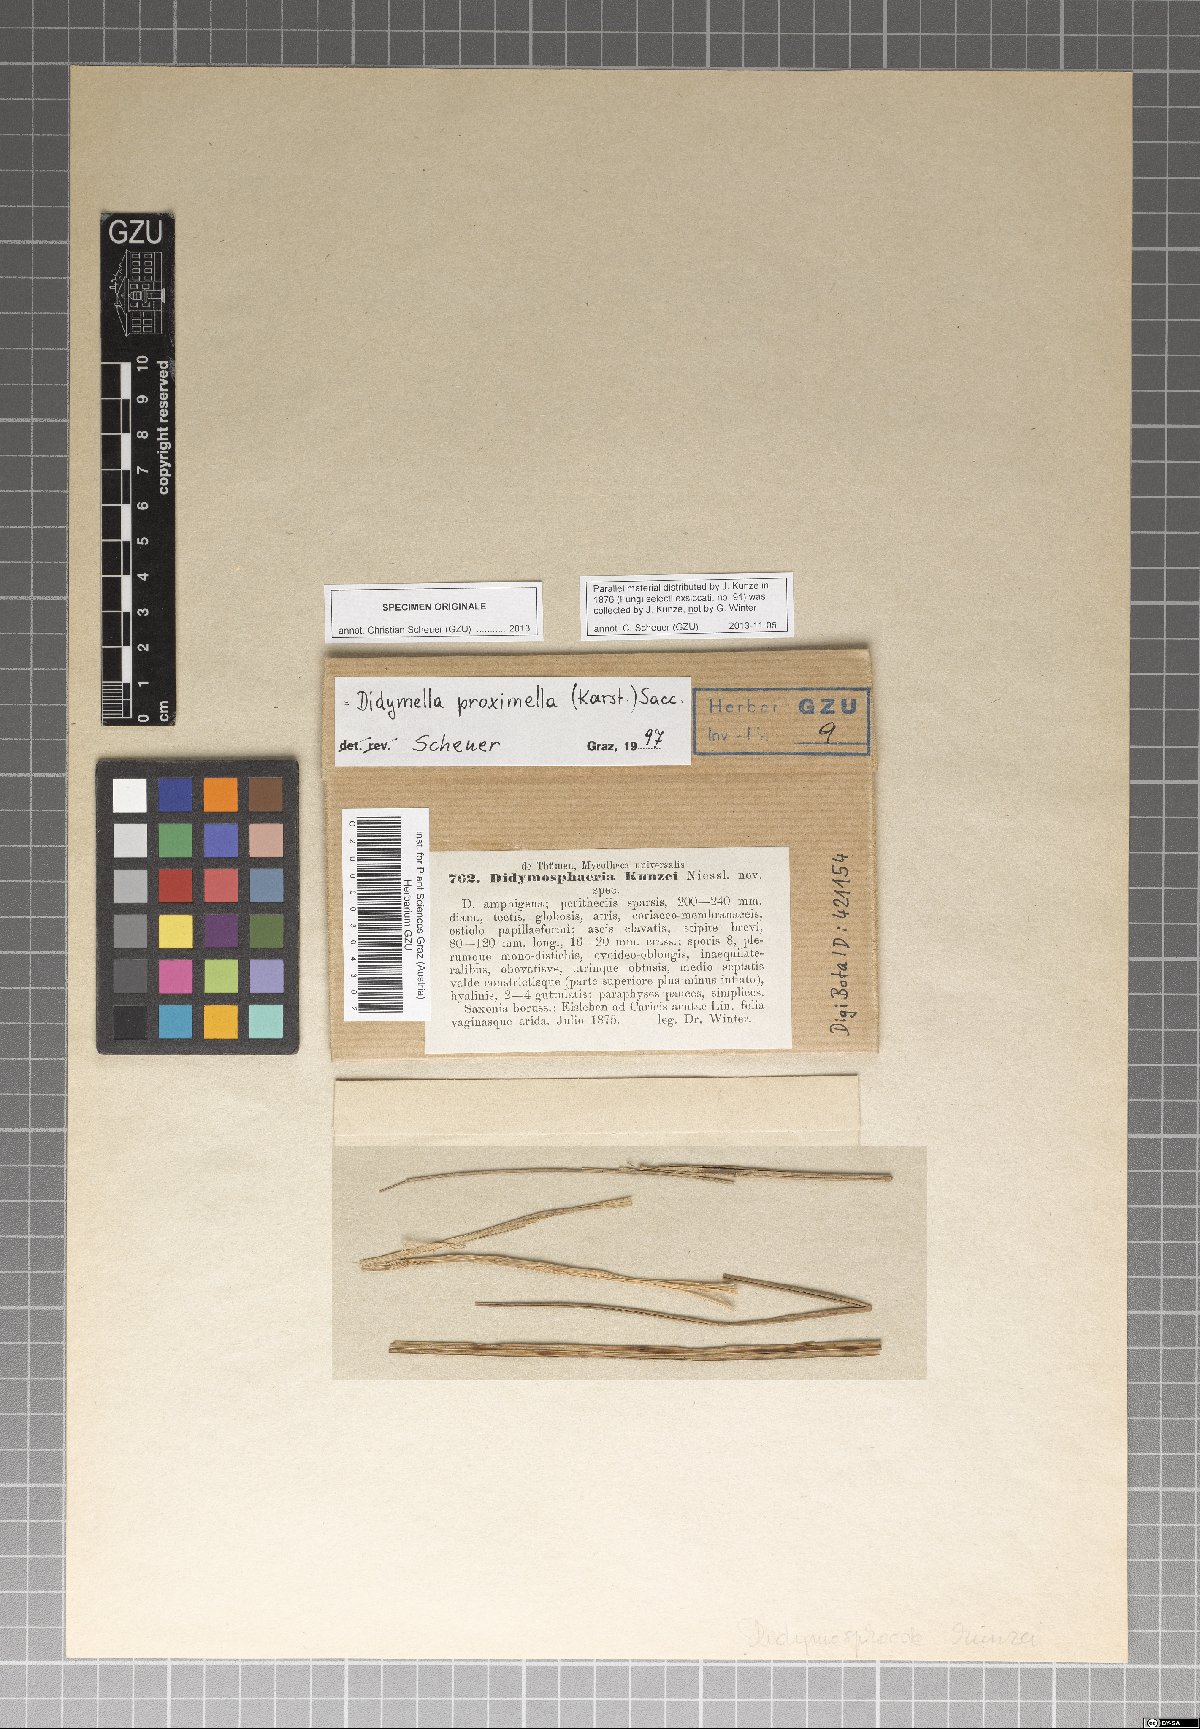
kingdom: Fungi
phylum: Ascomycota
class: Dothideomycetes
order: Pleosporales
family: Didymosphaeriaceae
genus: Didymosphaeria
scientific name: Didymosphaeria
